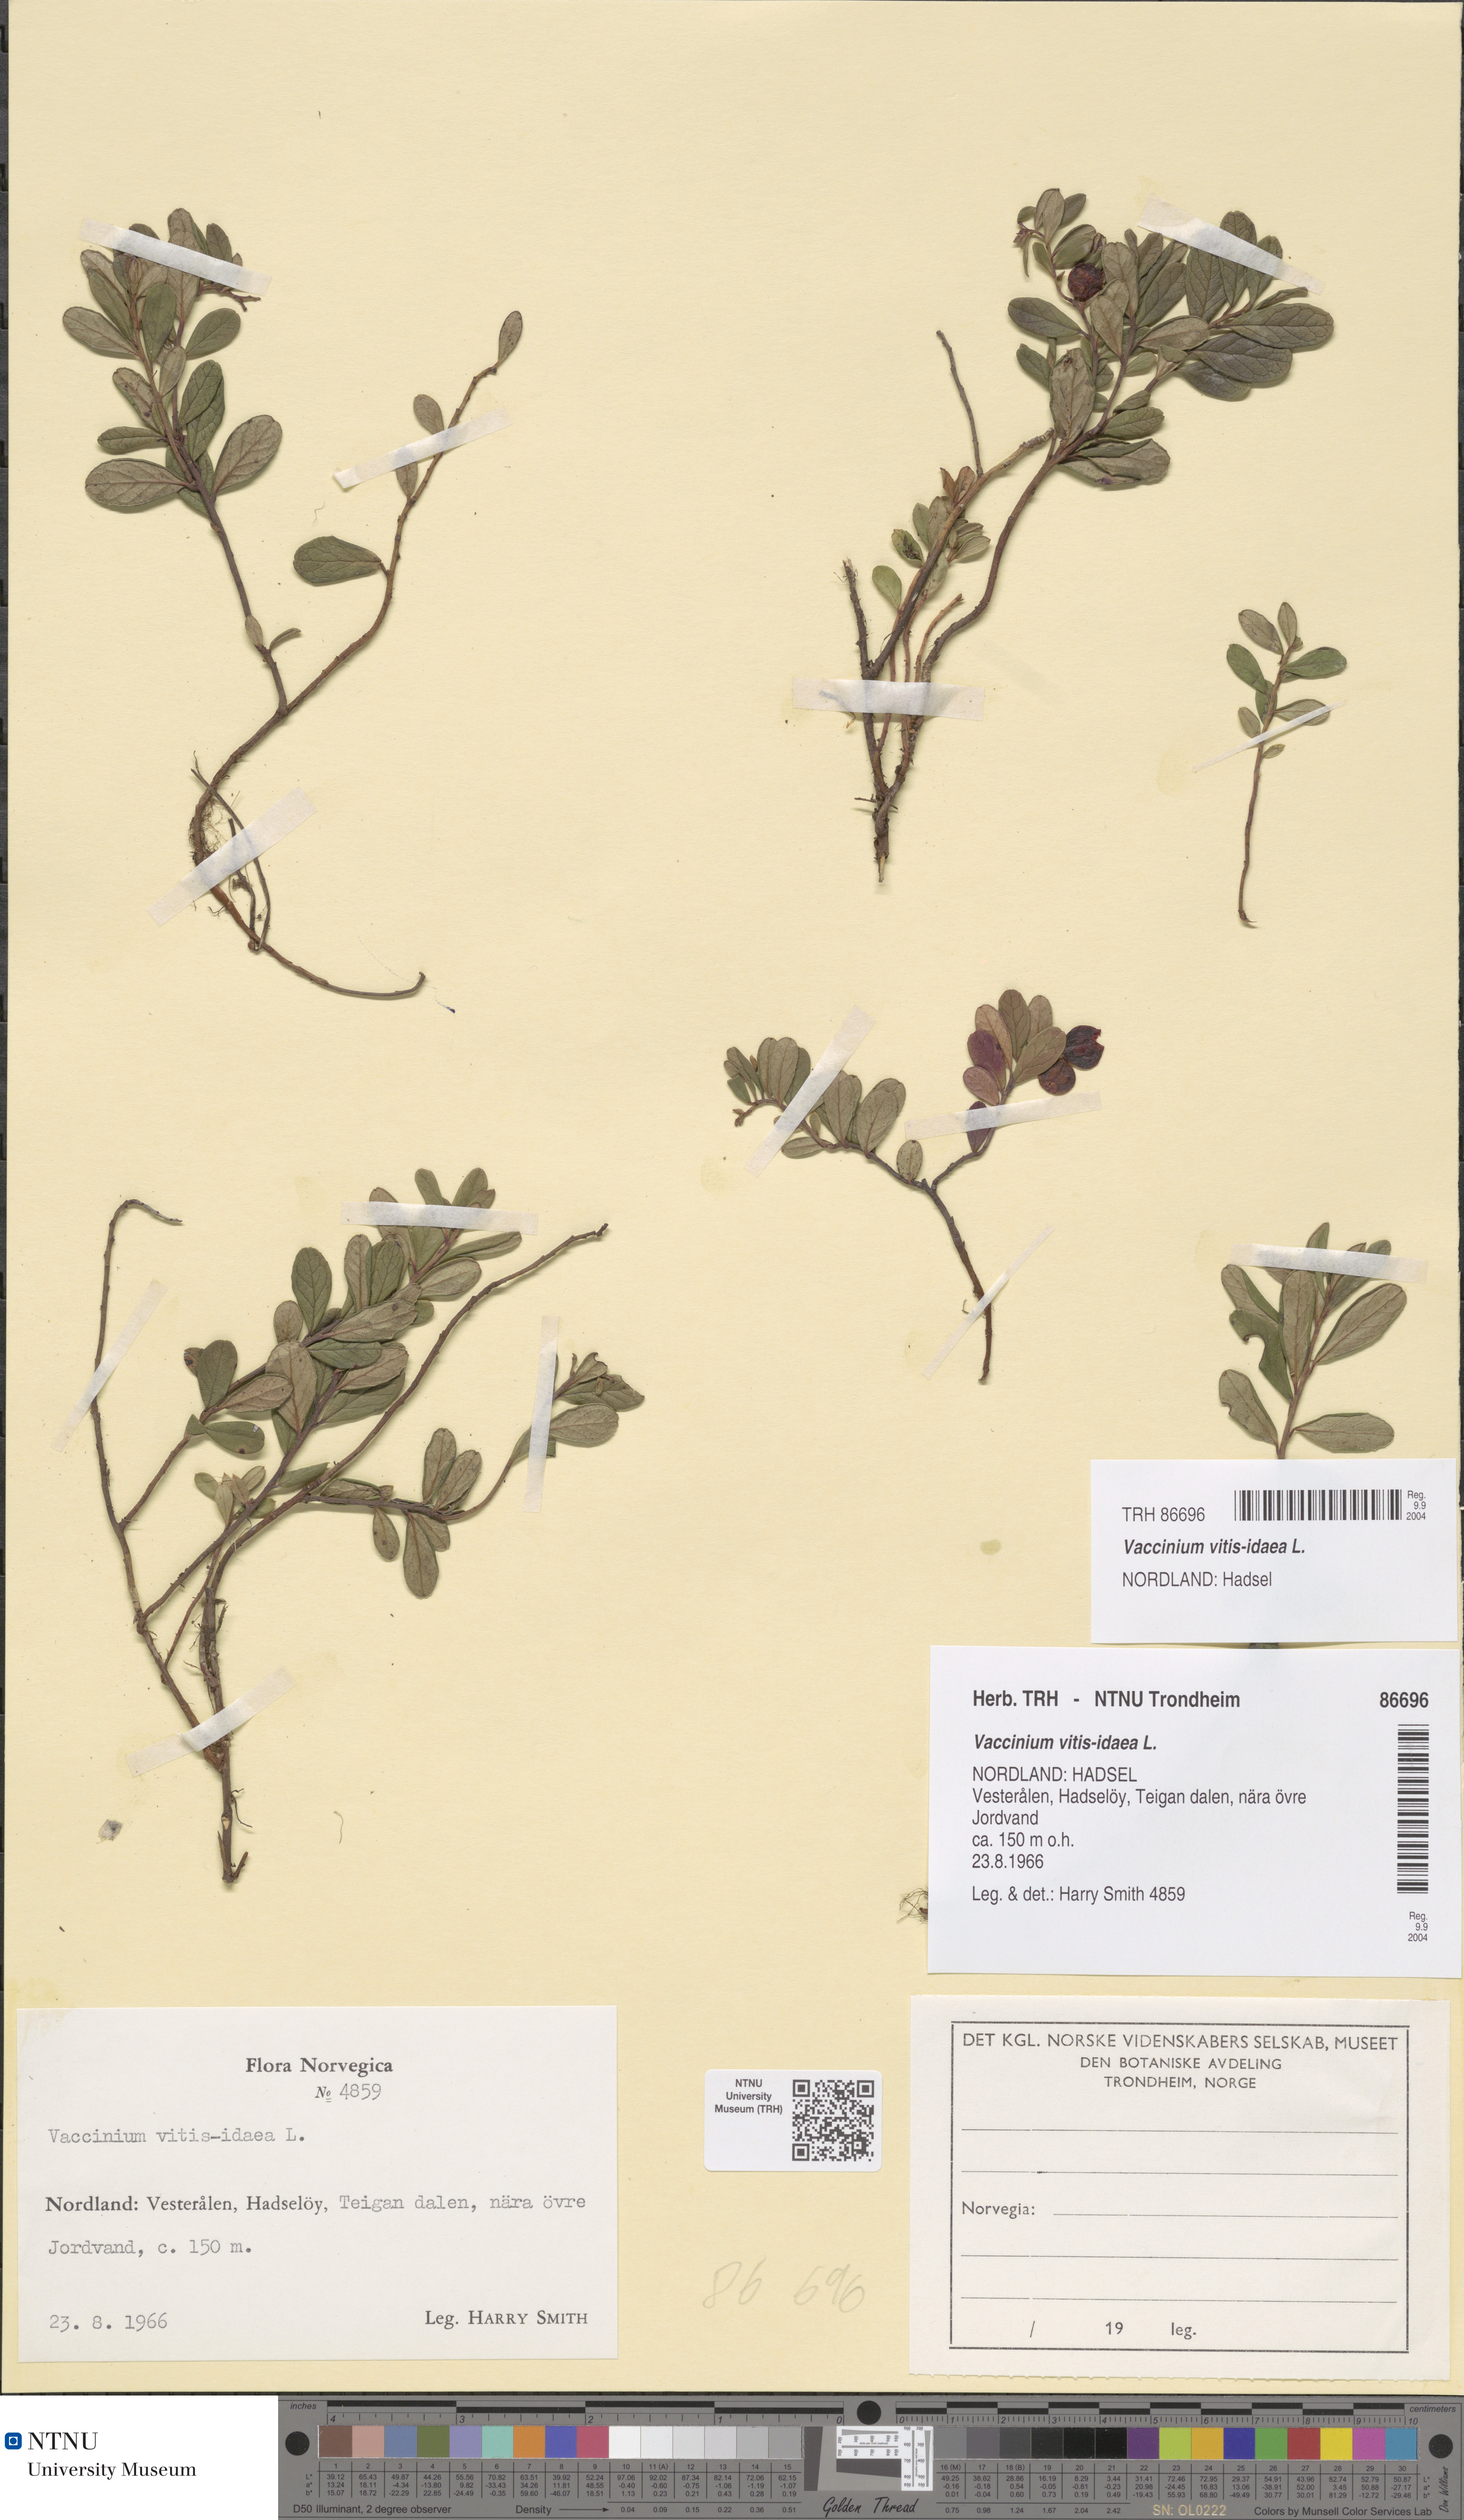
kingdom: Plantae
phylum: Tracheophyta
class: Magnoliopsida
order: Ericales
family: Ericaceae
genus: Vaccinium
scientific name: Vaccinium vitis-idaea
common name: Cowberry
